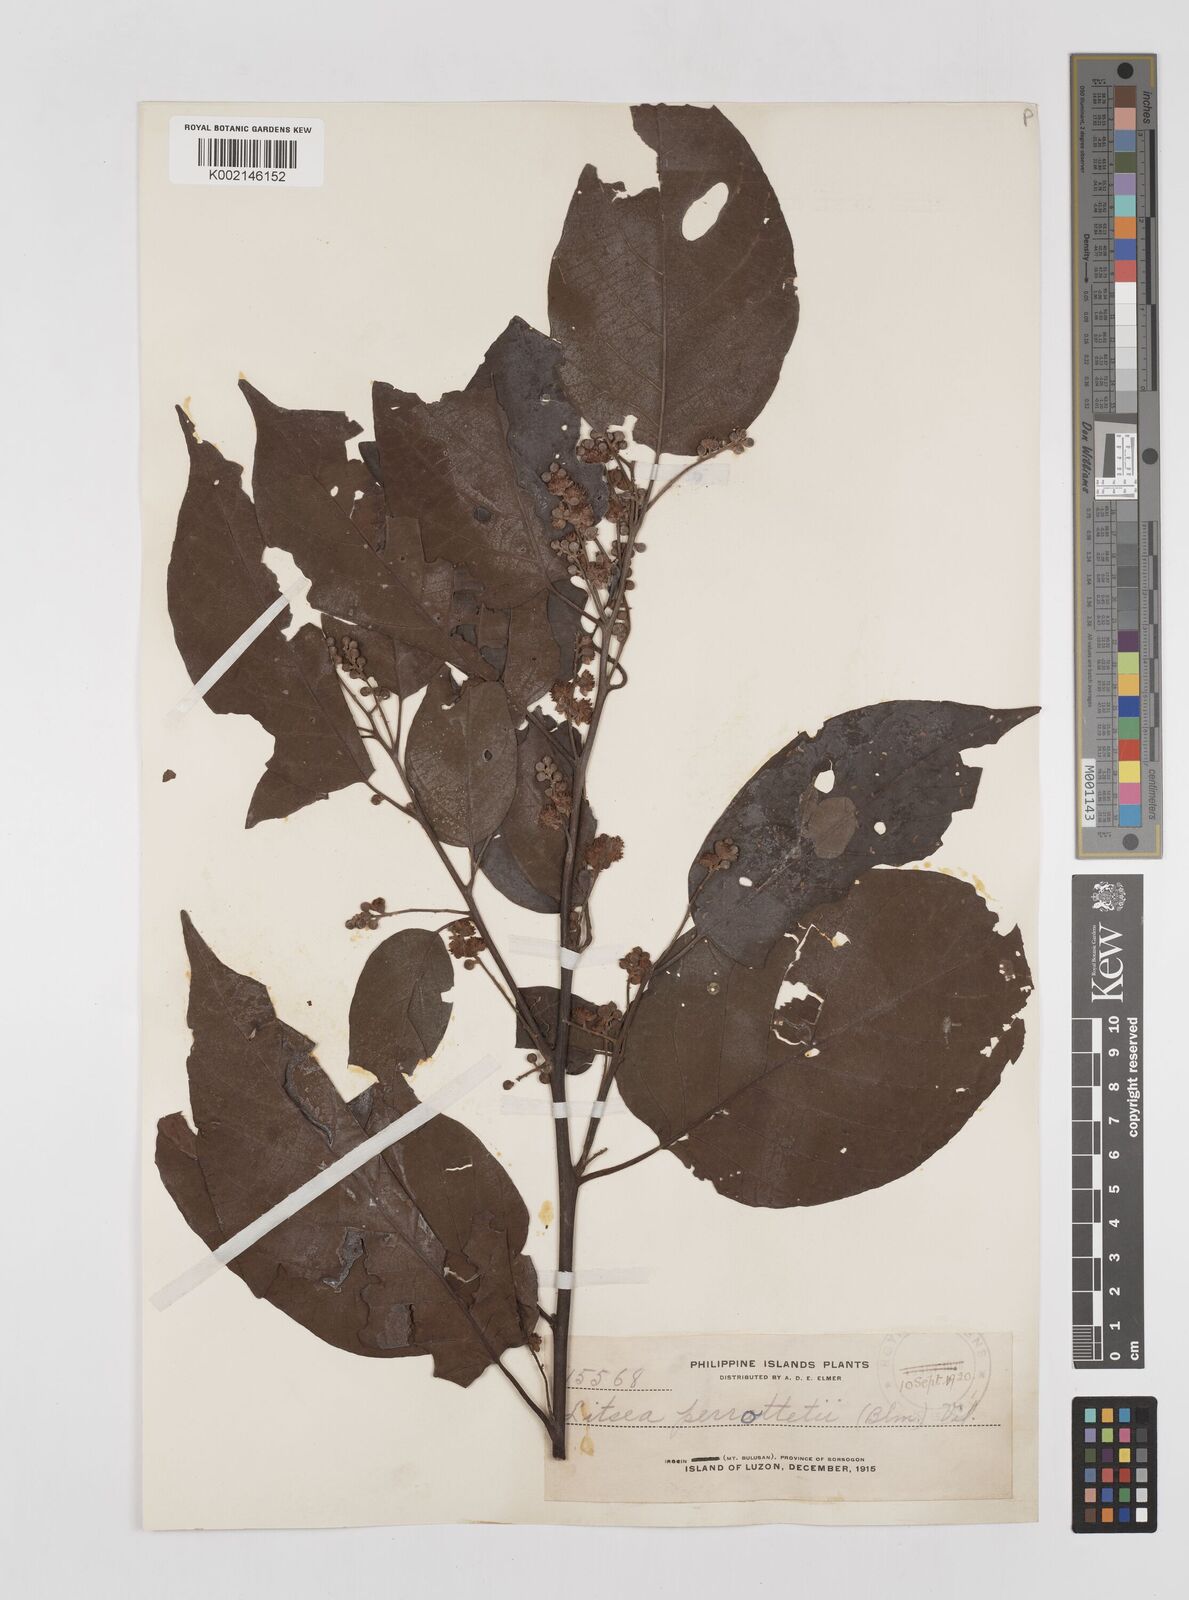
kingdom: Plantae
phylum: Tracheophyta
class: Magnoliopsida
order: Laurales
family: Lauraceae
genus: Litsea
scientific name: Litsea cordata
